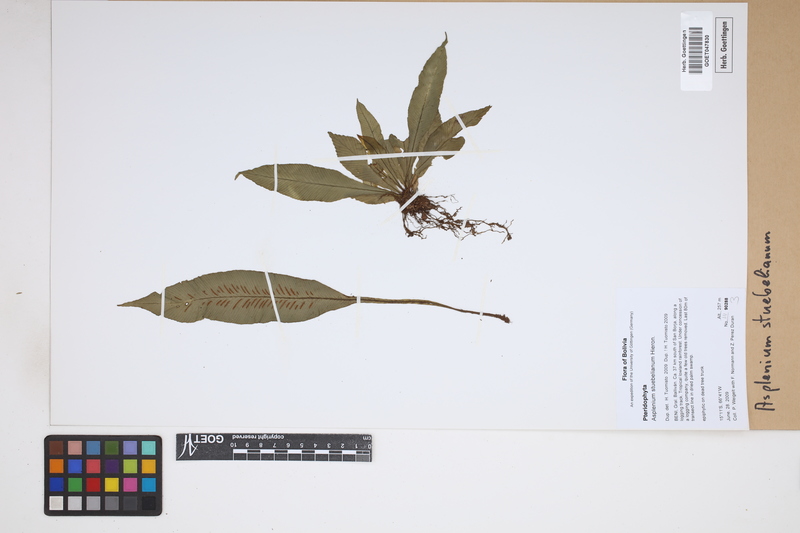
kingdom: Plantae
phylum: Tracheophyta
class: Polypodiopsida
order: Polypodiales
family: Aspleniaceae
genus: Asplenium
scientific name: Asplenium stuebelianum
